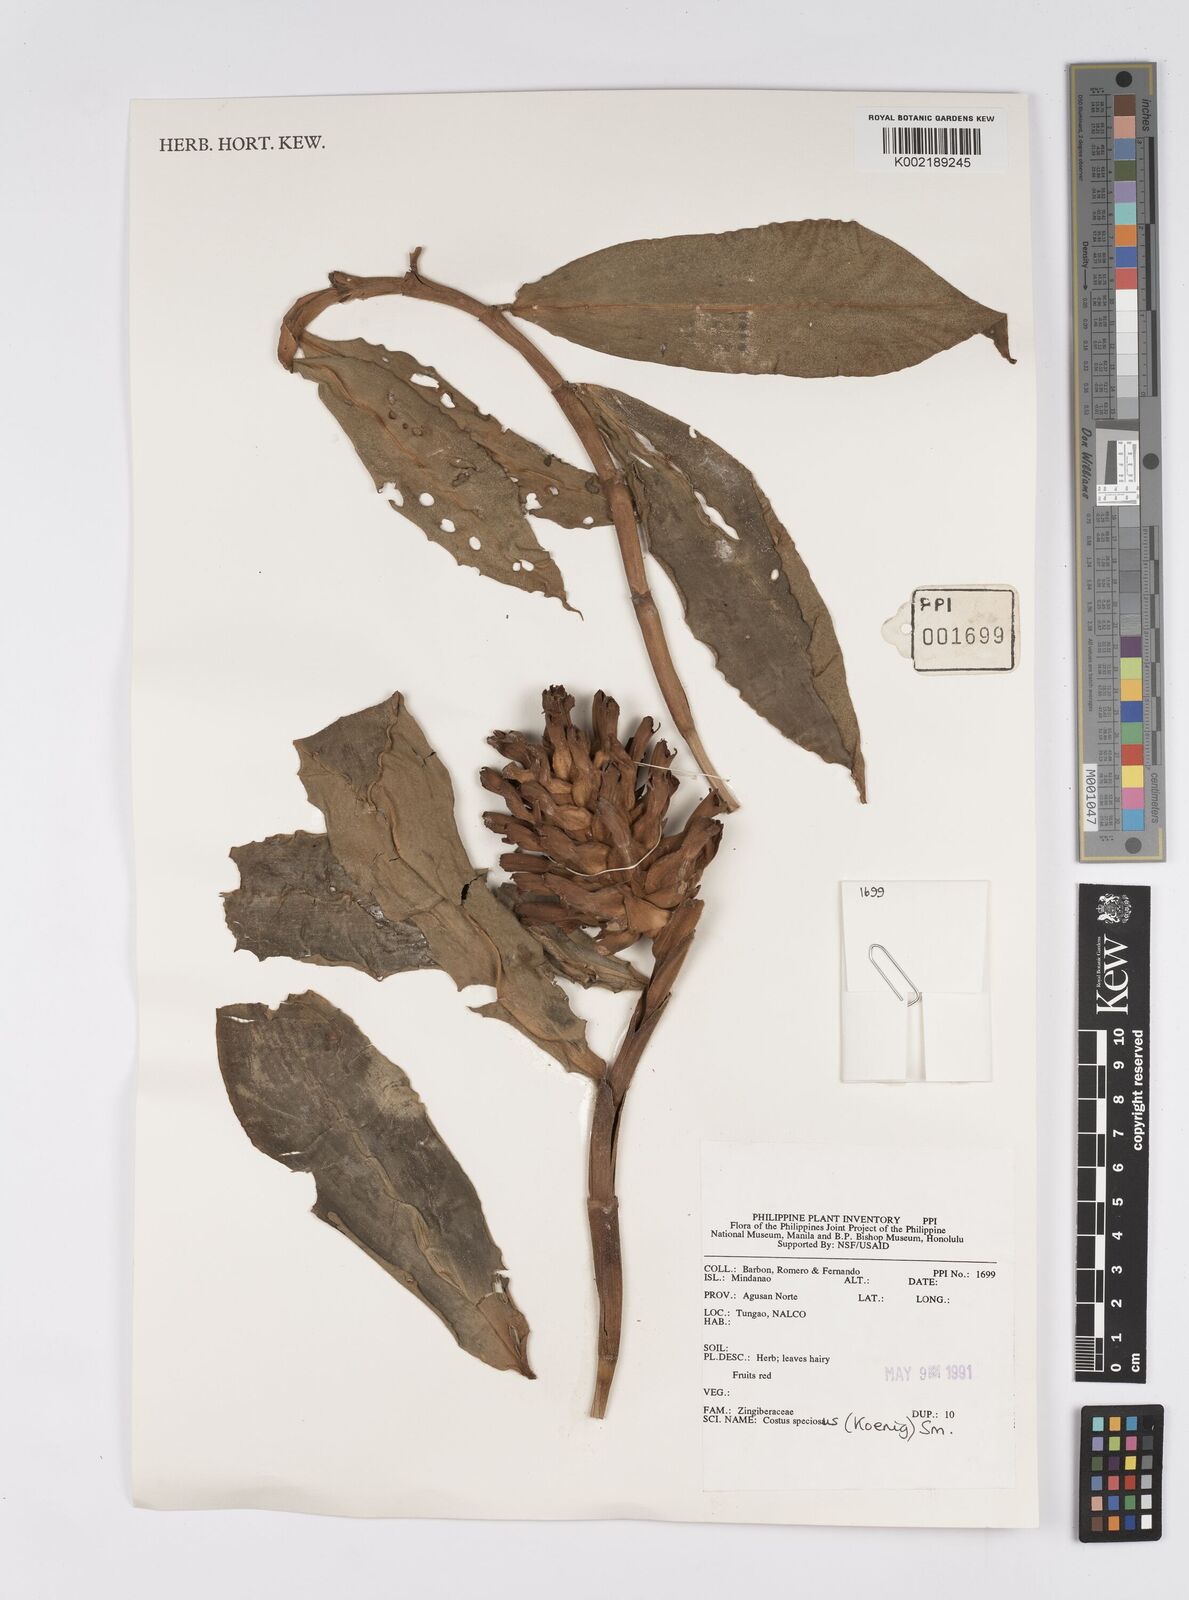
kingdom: Plantae
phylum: Tracheophyta
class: Liliopsida
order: Zingiberales
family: Costaceae
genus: Hellenia
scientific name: Hellenia speciosa
